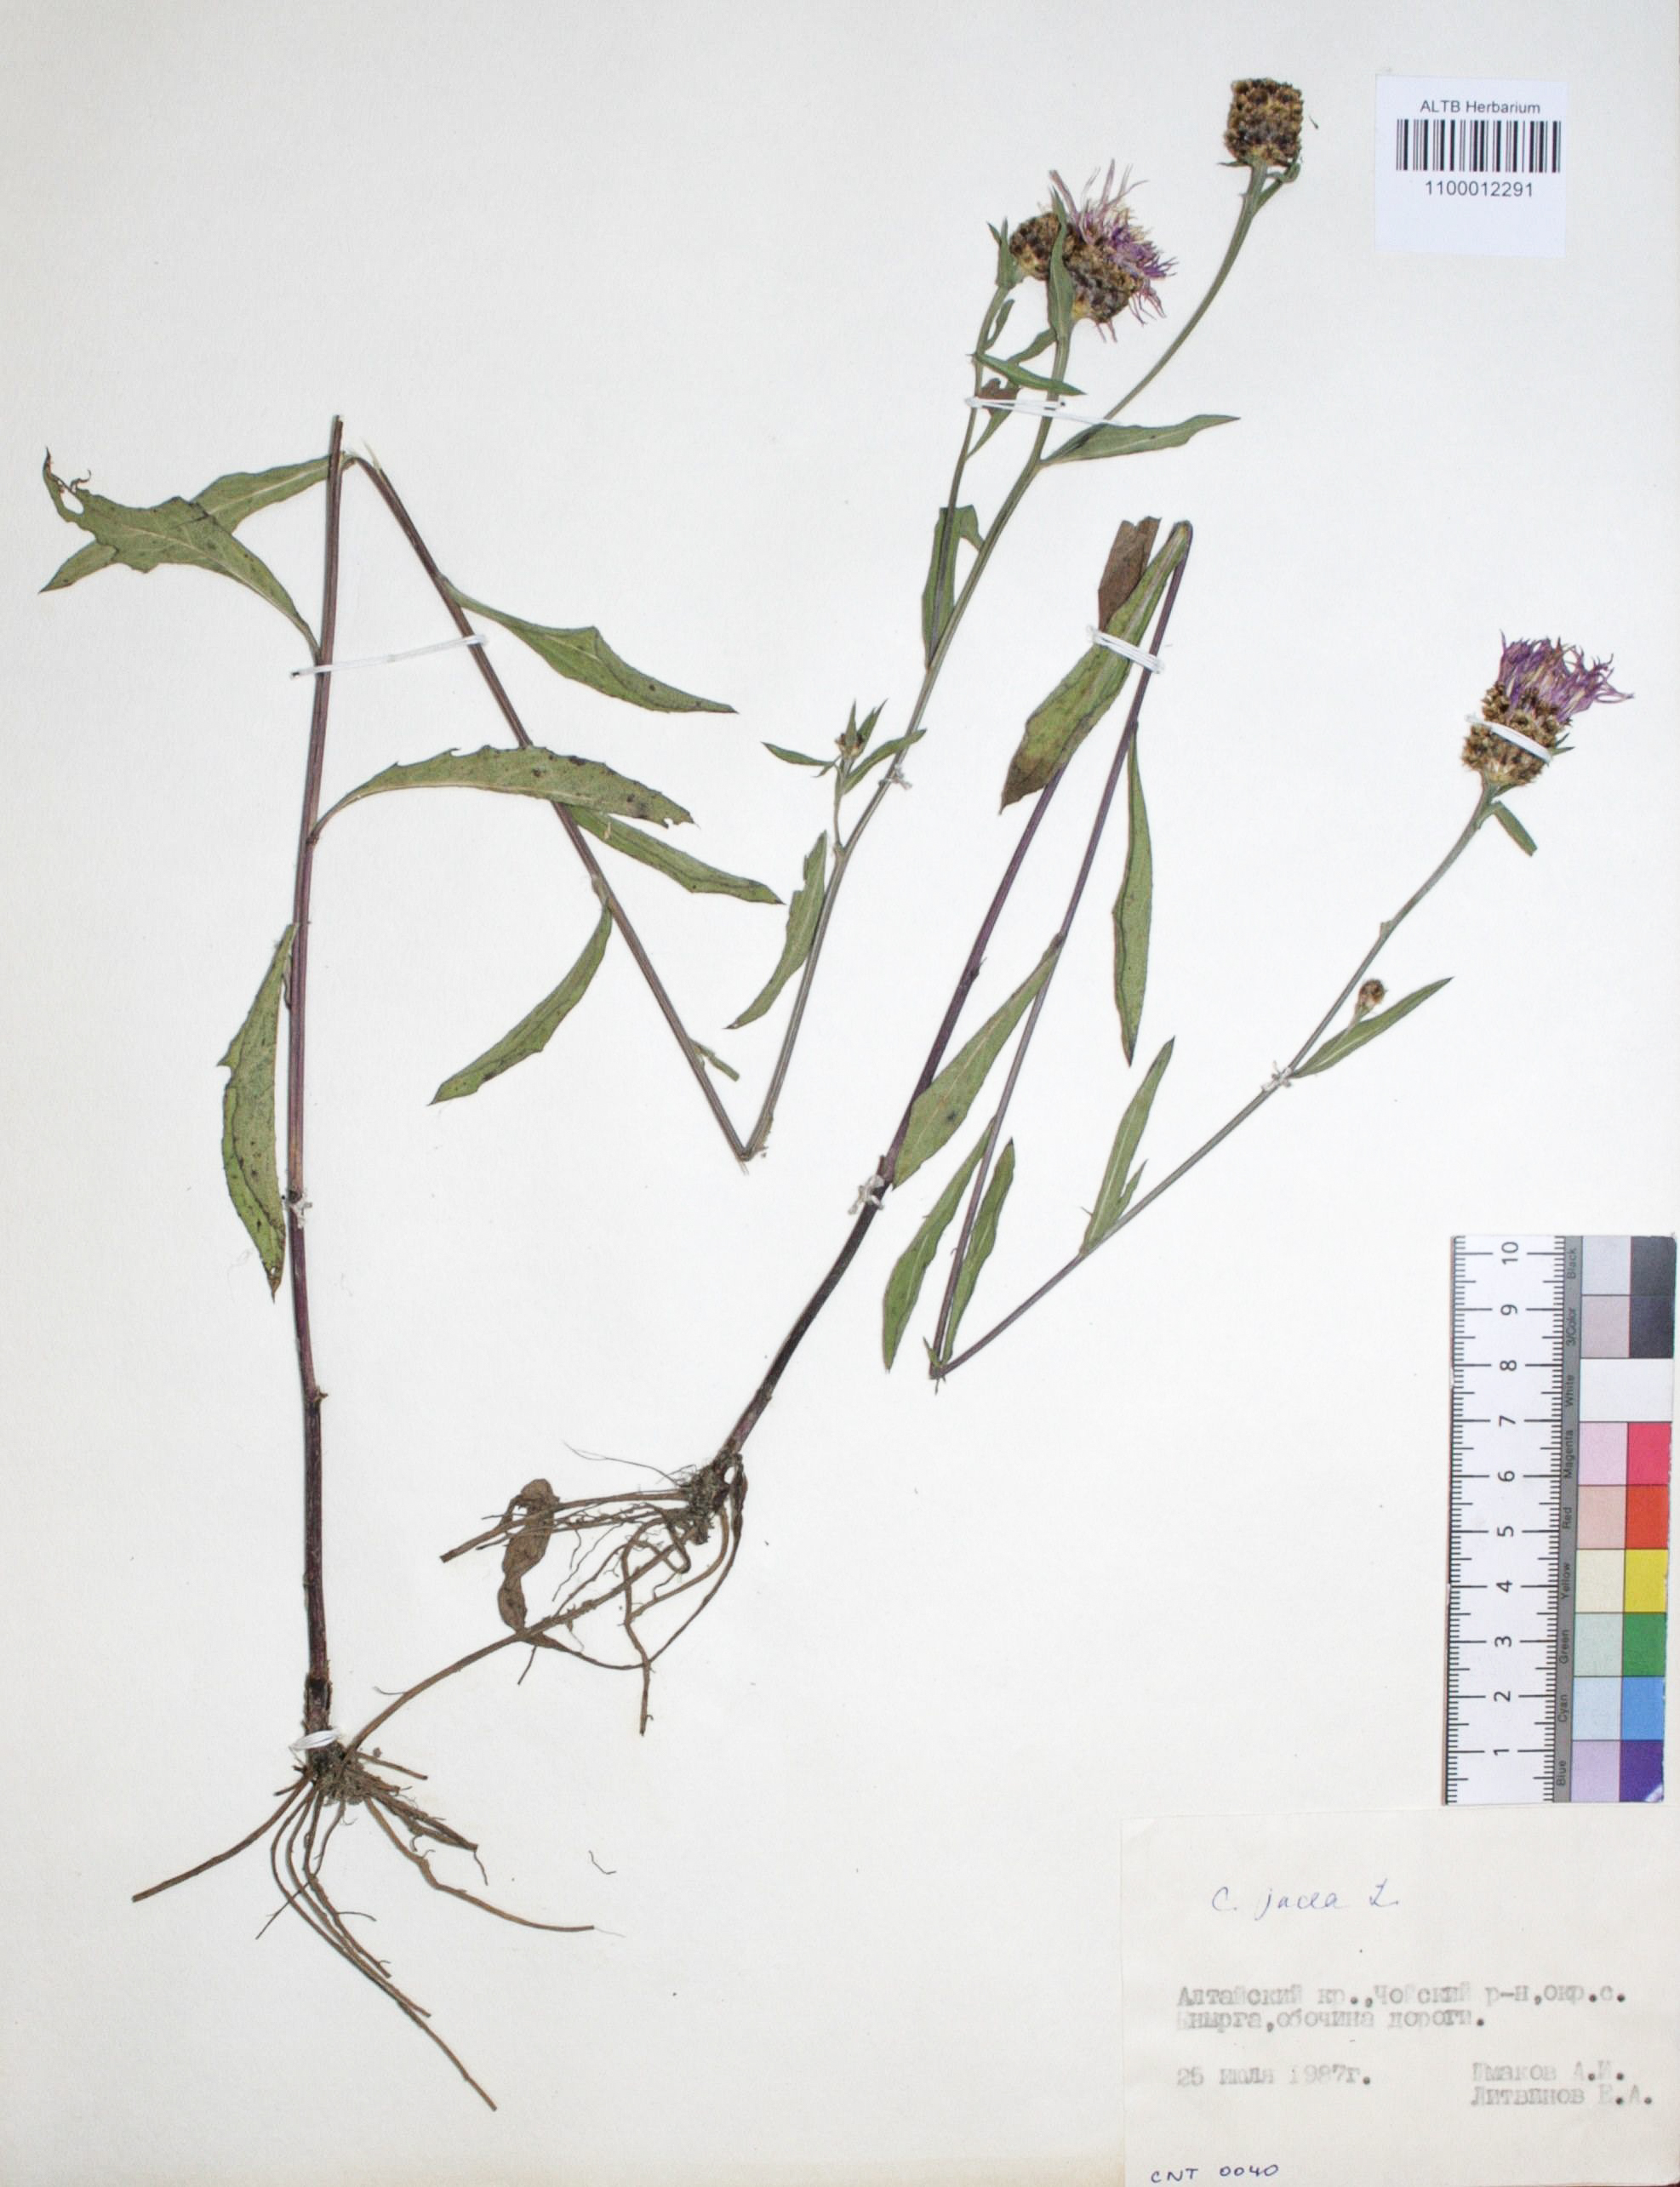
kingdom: Plantae
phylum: Tracheophyta
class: Magnoliopsida
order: Asterales
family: Asteraceae
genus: Centaurea
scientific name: Centaurea jacea
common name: Brown knapweed
